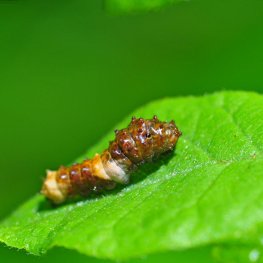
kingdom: Animalia
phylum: Arthropoda
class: Insecta
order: Lepidoptera
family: Papilionidae
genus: Papilio
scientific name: Papilio cresphontes
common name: Eastern Giant Swallowtail
